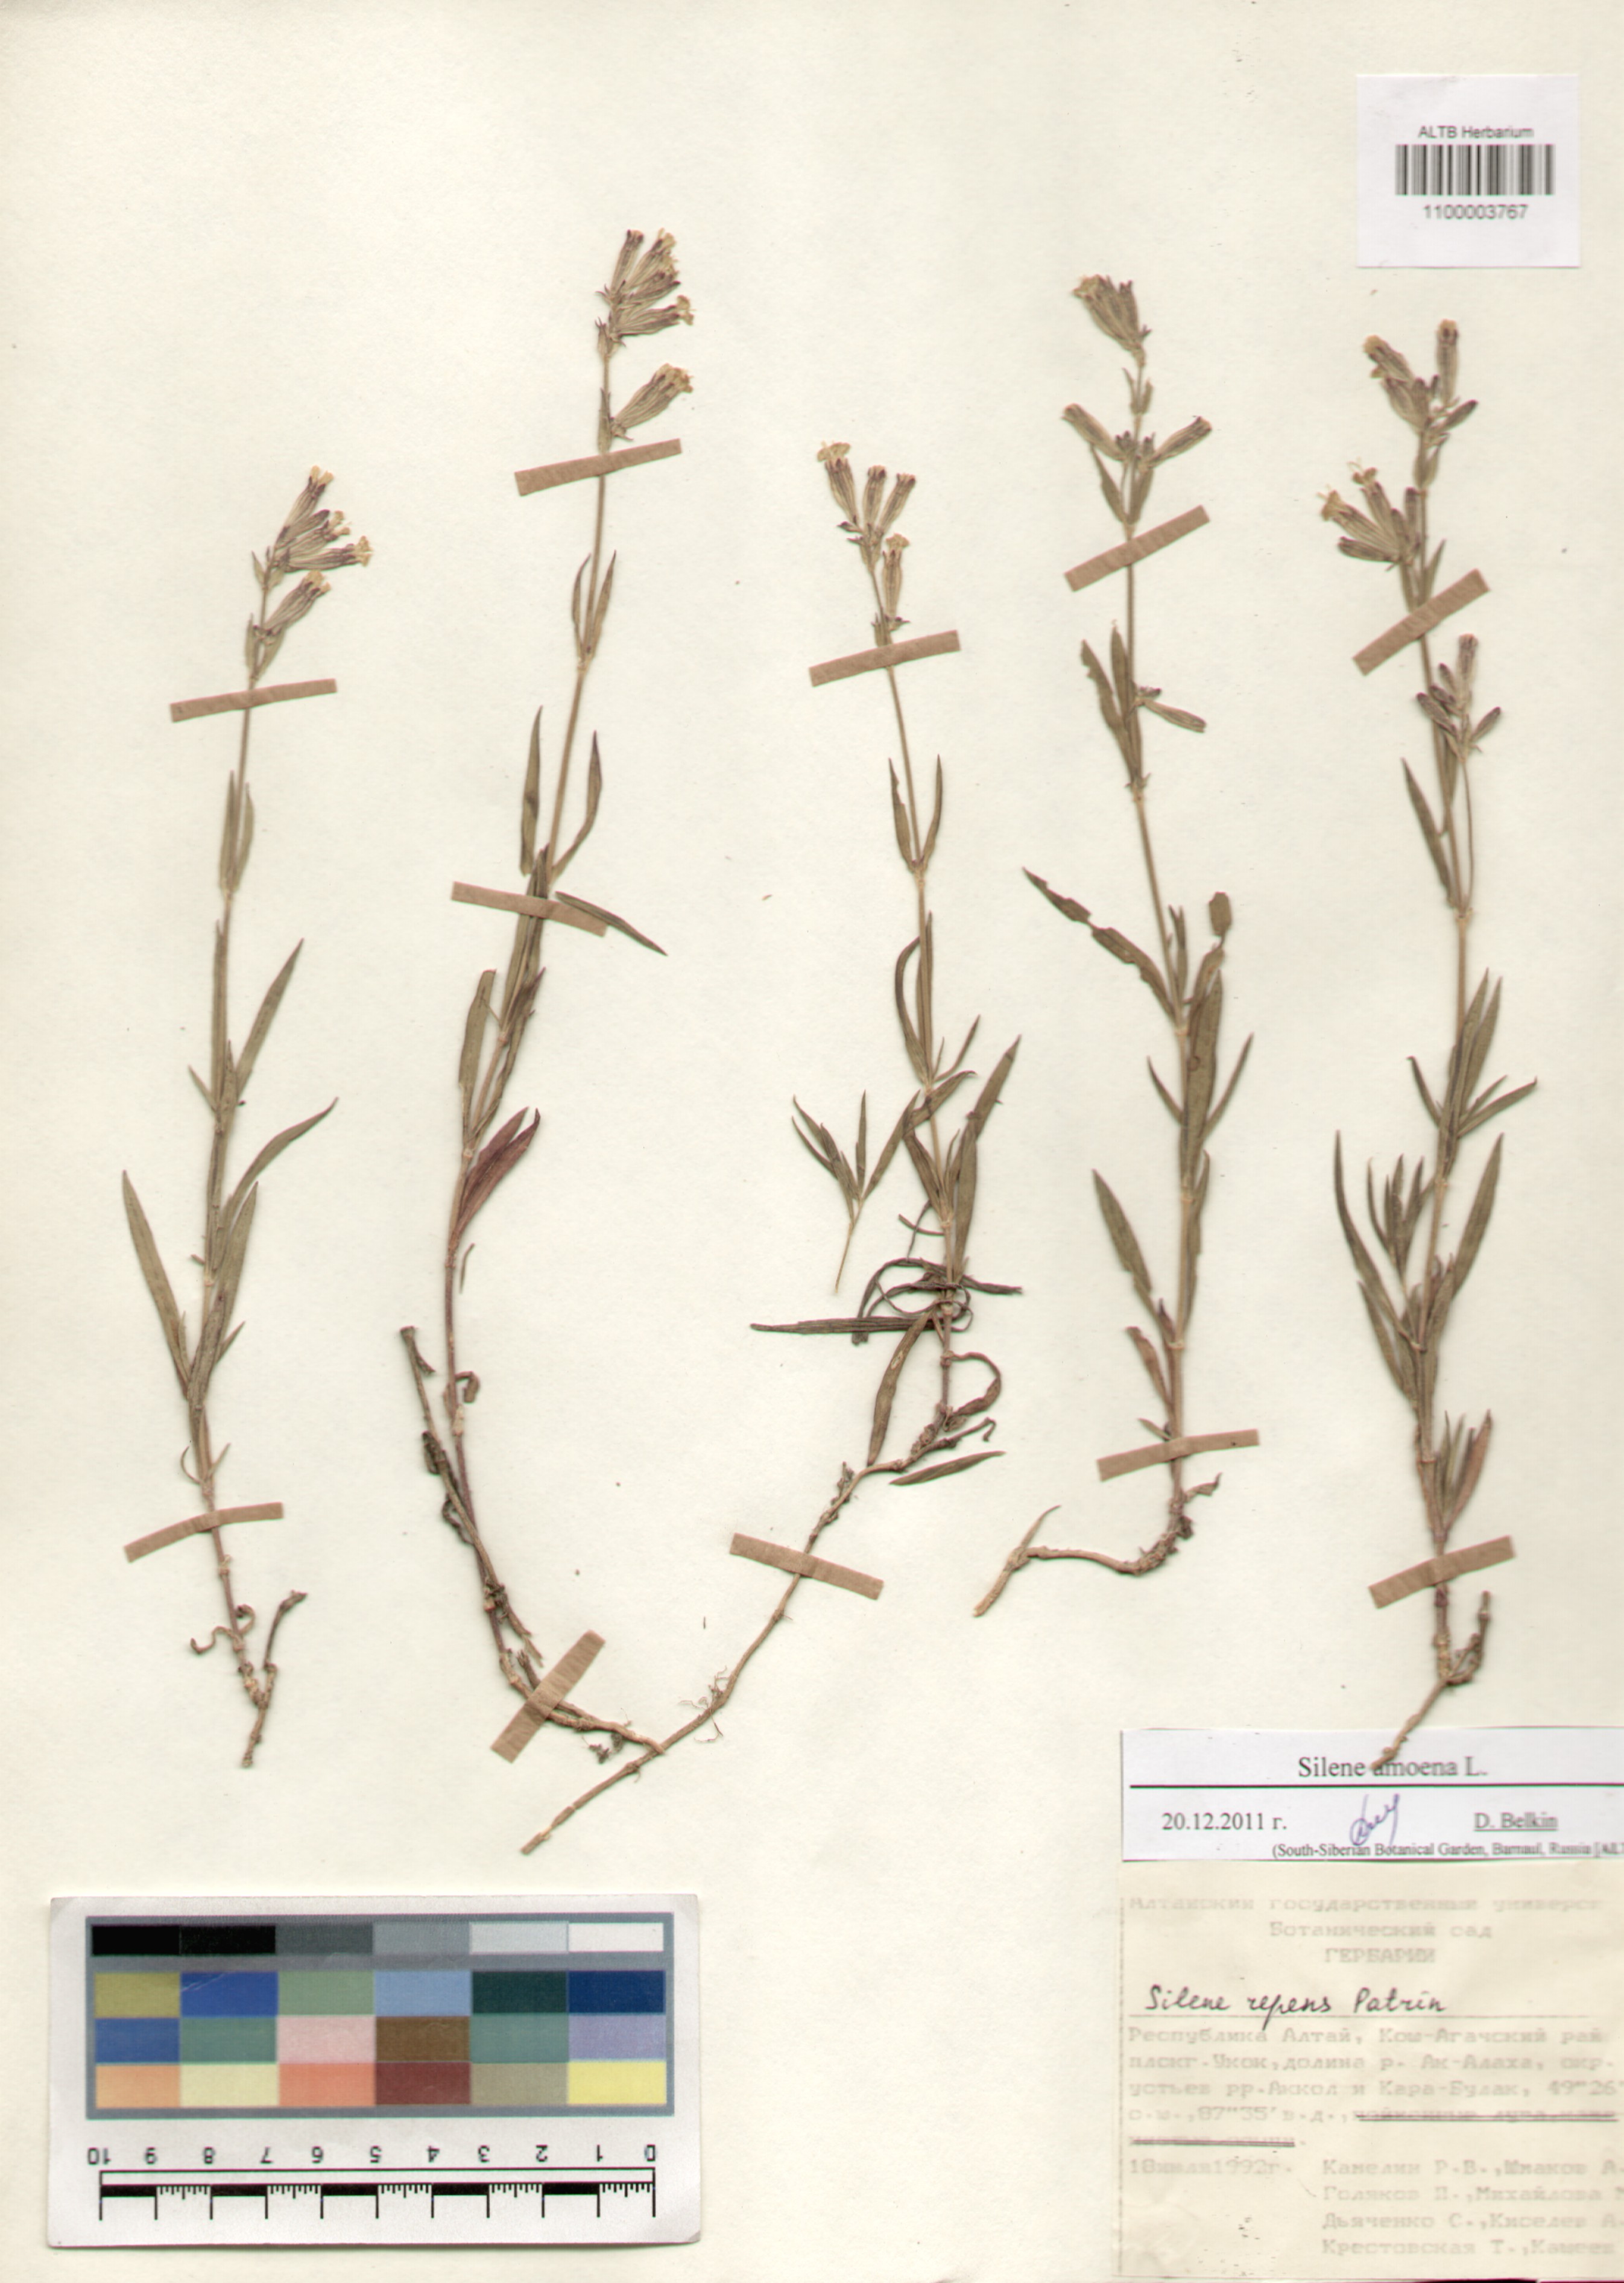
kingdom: Plantae
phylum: Tracheophyta
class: Magnoliopsida
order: Caryophyllales
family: Caryophyllaceae
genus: Silene
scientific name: Silene amoena
